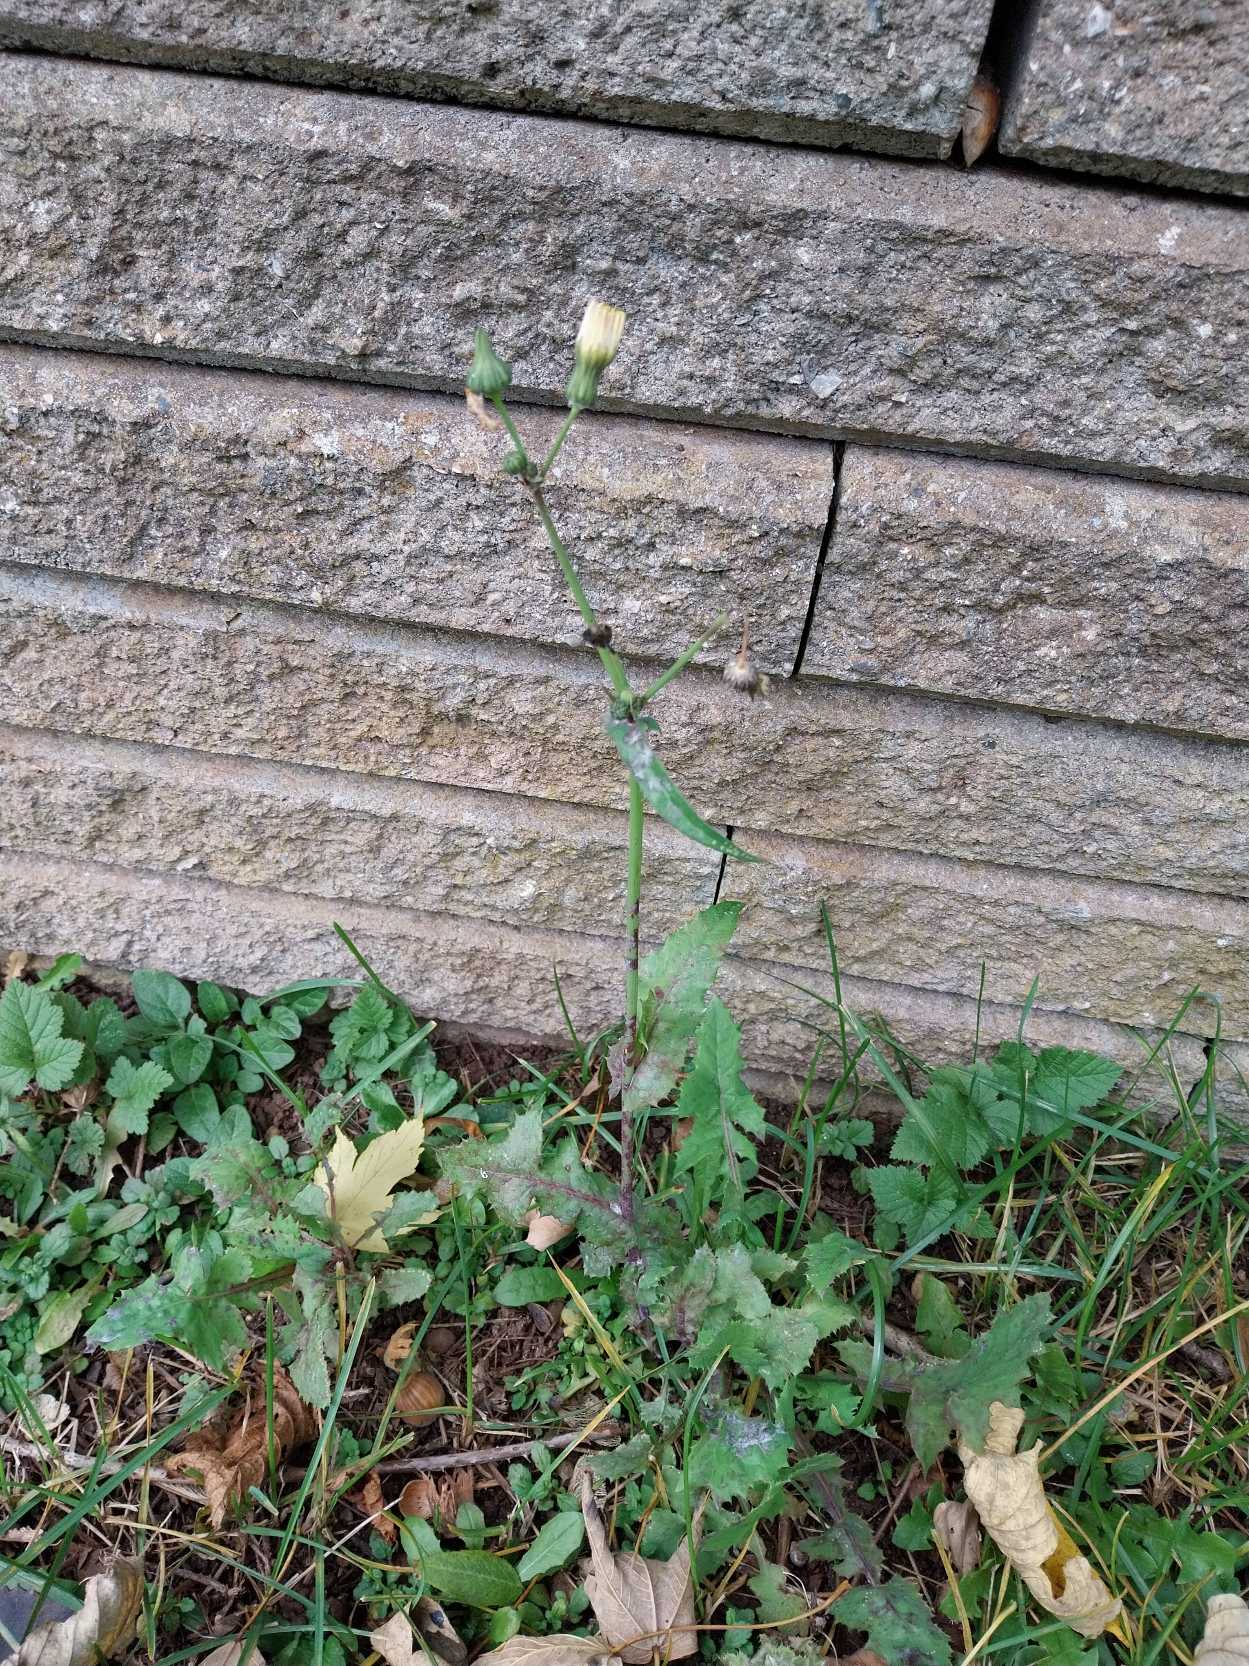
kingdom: Plantae
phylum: Tracheophyta
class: Magnoliopsida
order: Asterales
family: Asteraceae
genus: Sonchus
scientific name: Sonchus oleraceus
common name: Almindelig svinemælk
